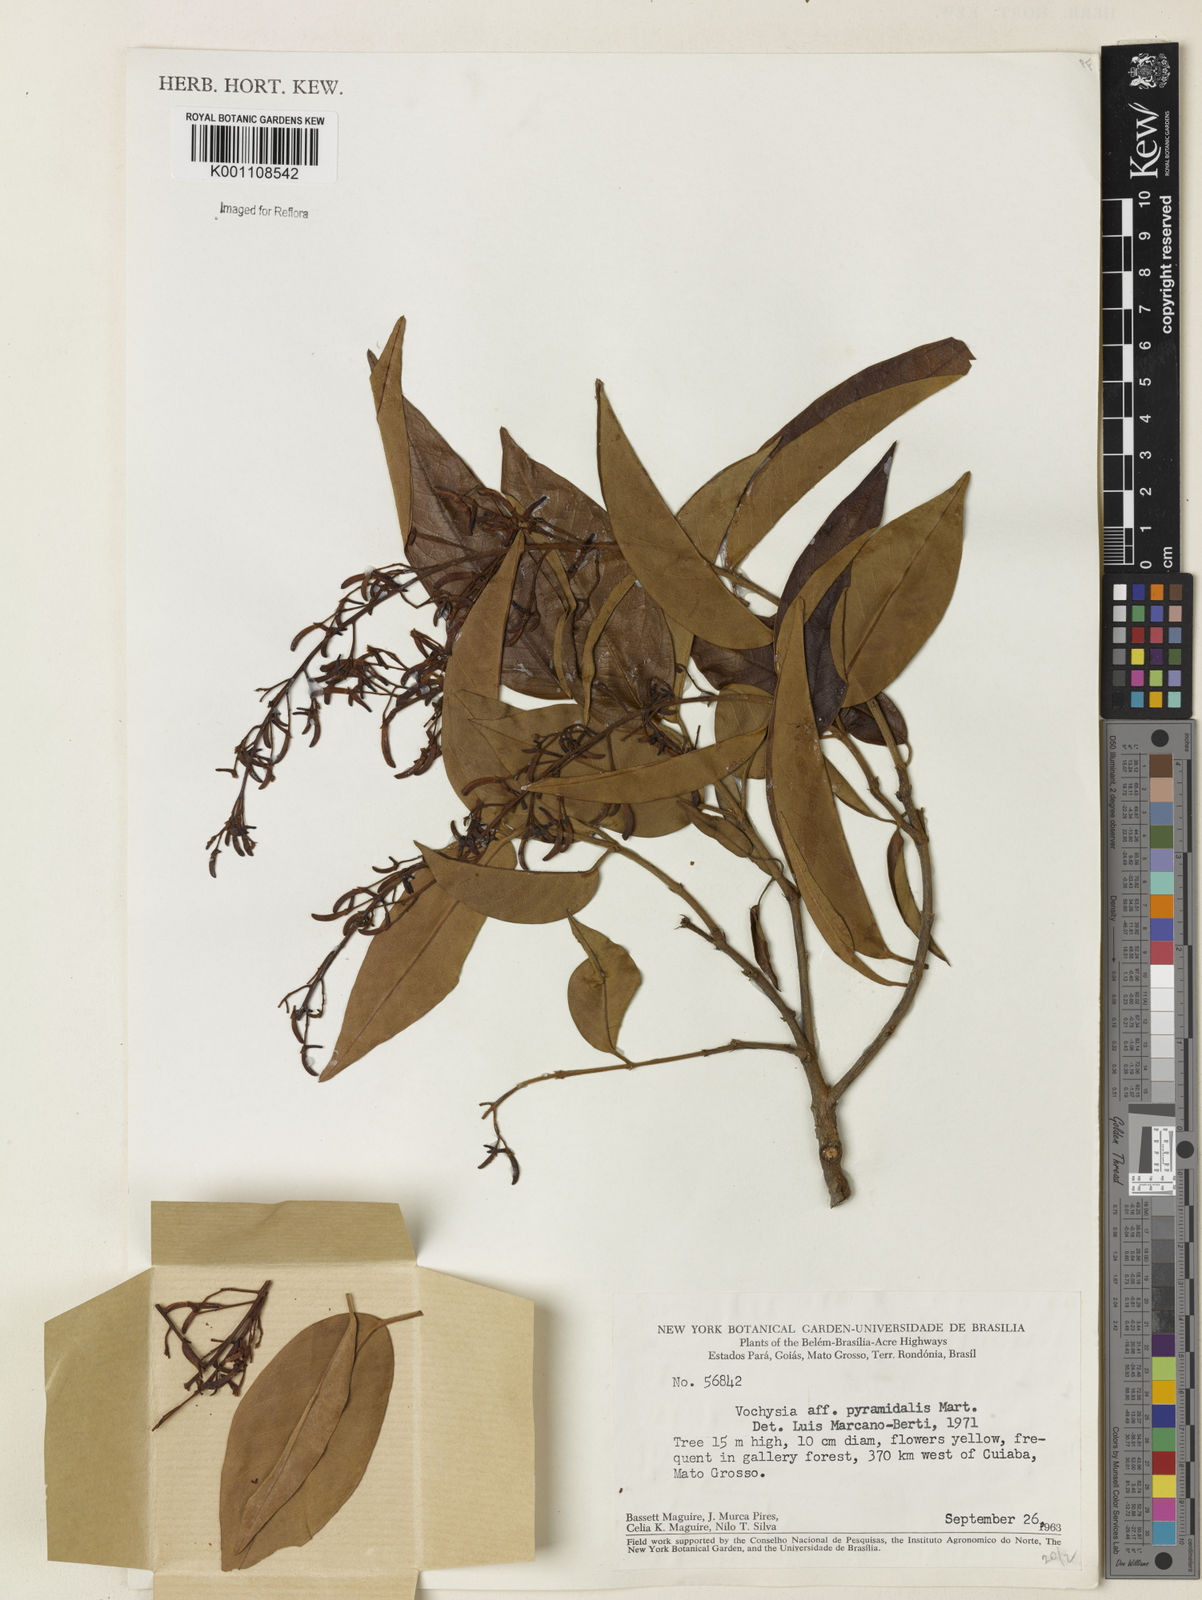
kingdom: Plantae
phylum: Tracheophyta
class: Magnoliopsida
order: Myrtales
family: Vochysiaceae
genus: Vochysia
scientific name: Vochysia pyramidalis
